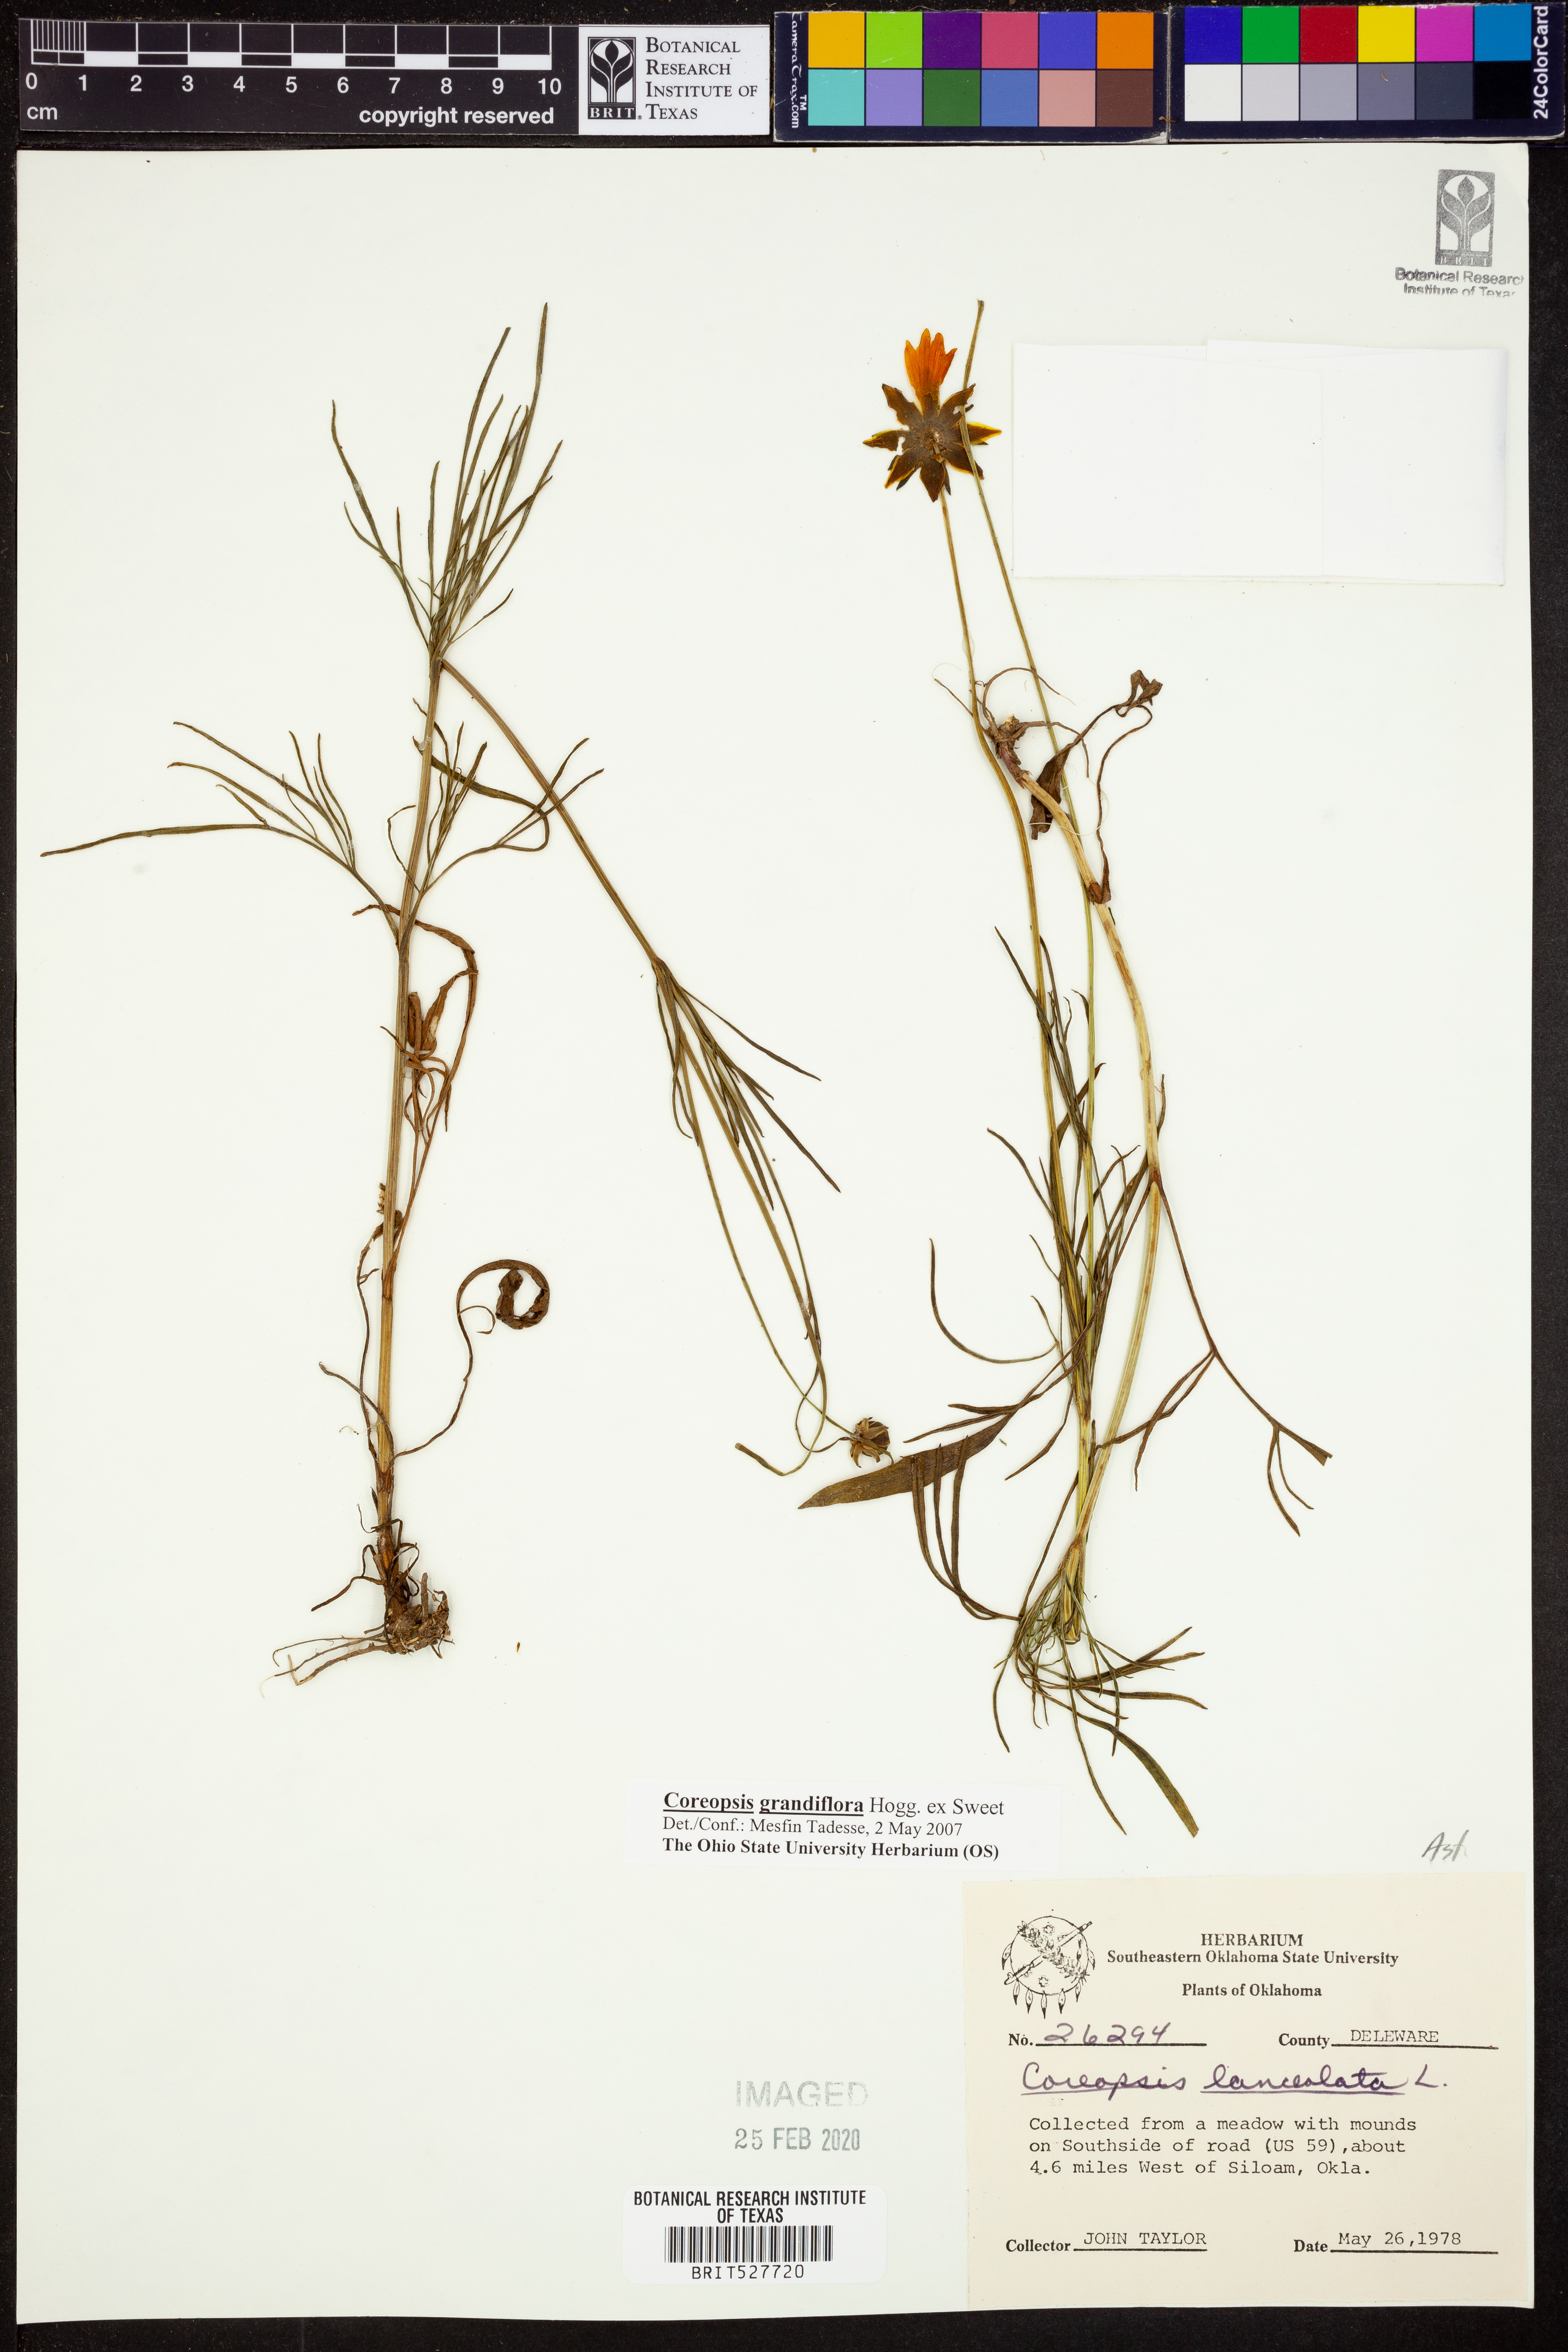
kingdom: Plantae
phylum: Tracheophyta
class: Magnoliopsida
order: Asterales
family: Asteraceae
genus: Coreopsis
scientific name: Coreopsis grandiflora
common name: Large-flowered tickseed
